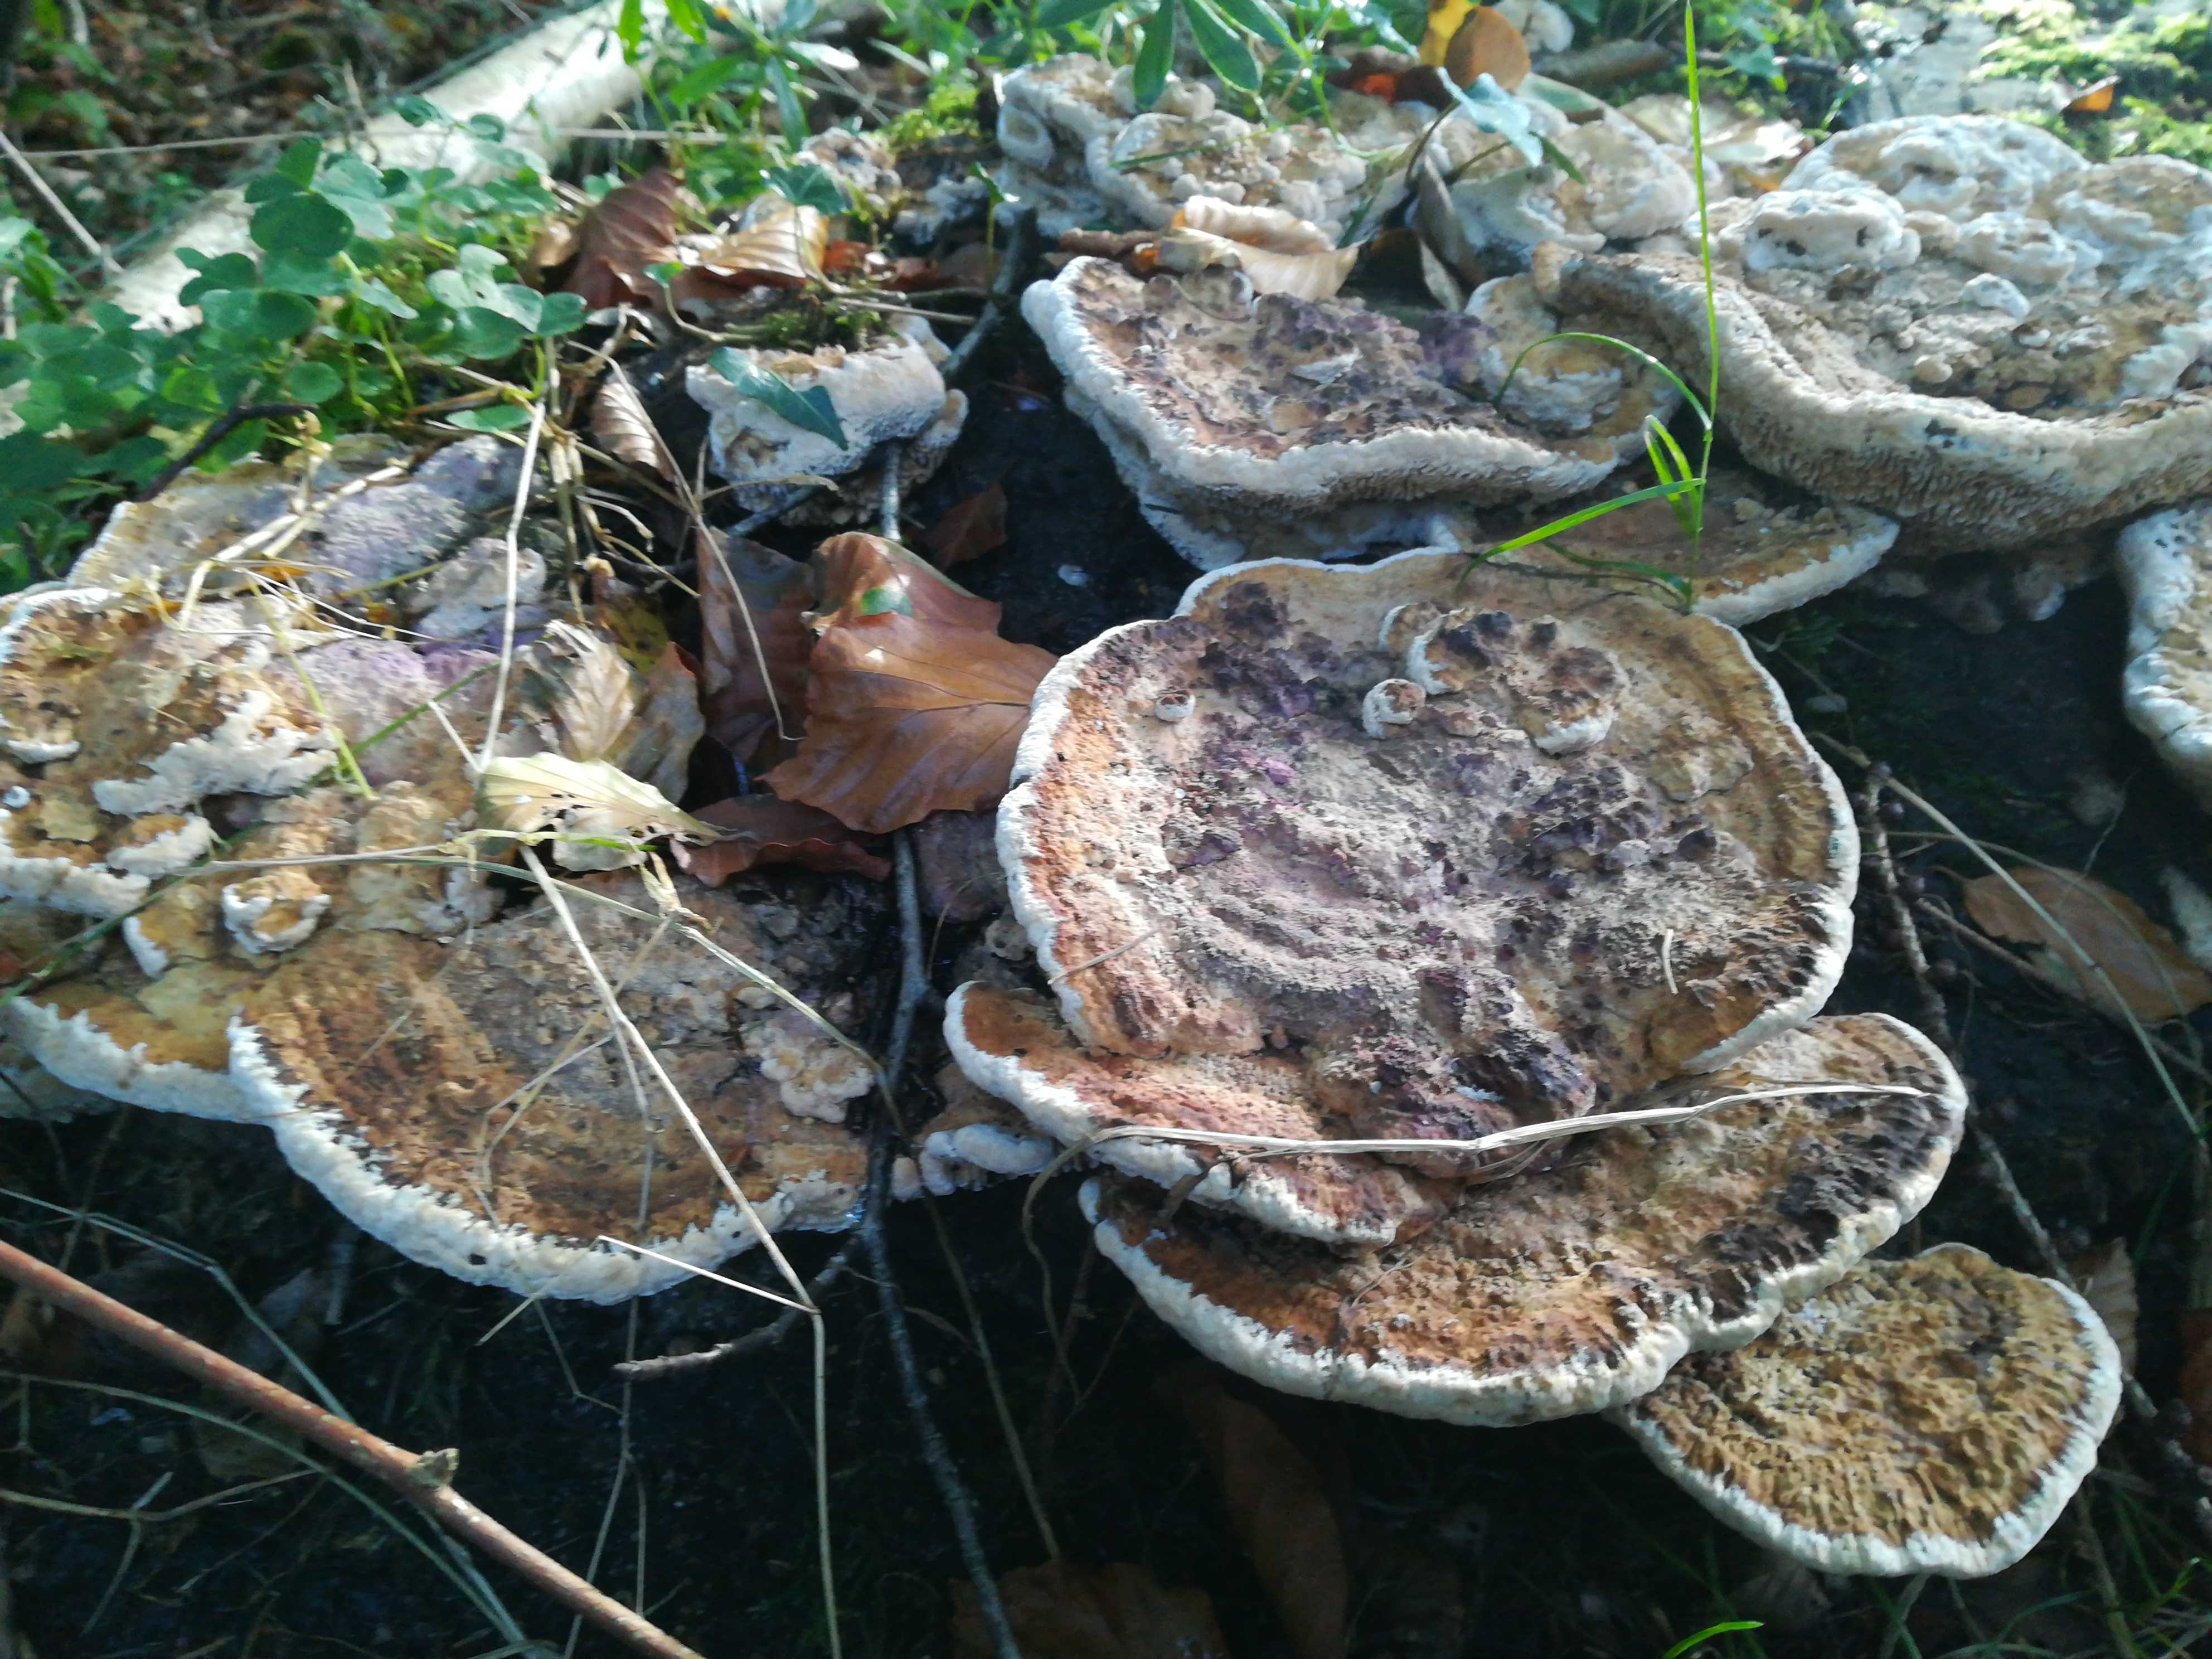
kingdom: Fungi
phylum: Basidiomycota
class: Agaricomycetes
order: Polyporales
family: Fomitopsidaceae
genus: Daedalea
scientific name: Daedalea quercina
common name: ege-labyrintsvamp
